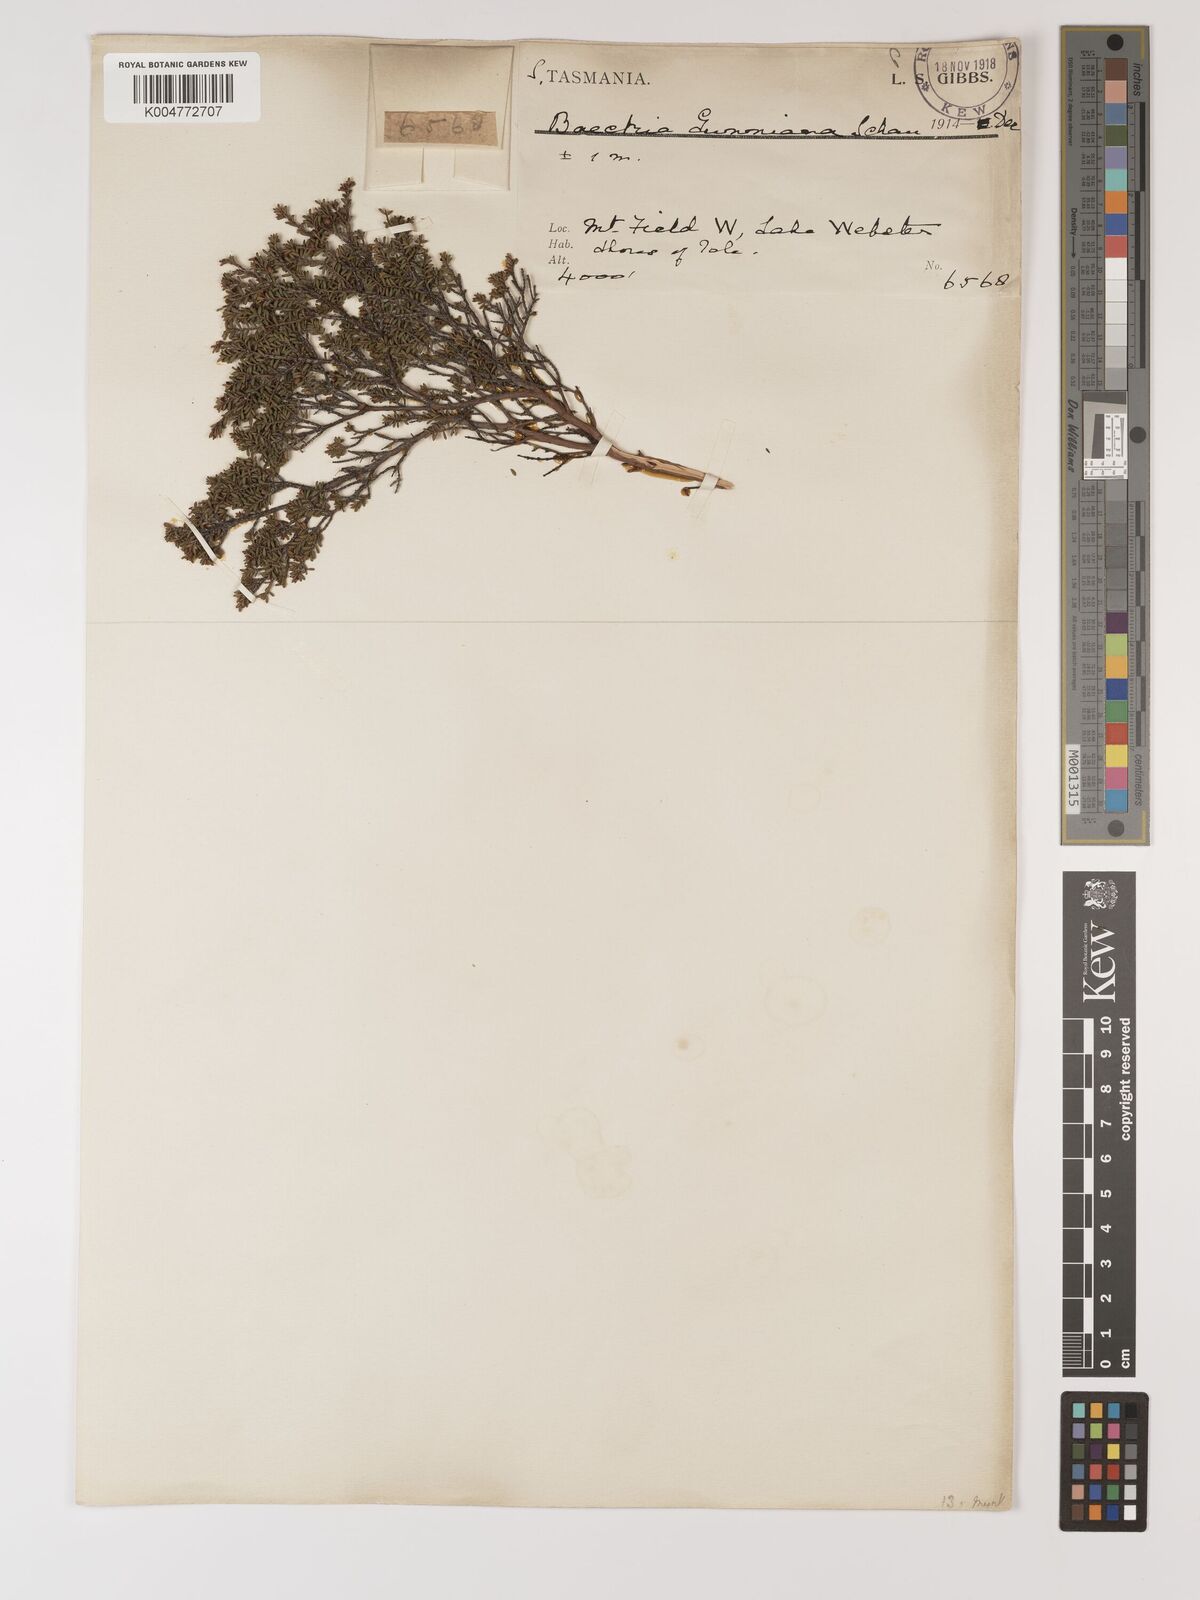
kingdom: Plantae
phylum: Tracheophyta
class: Magnoliopsida
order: Myrtales
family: Myrtaceae
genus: Baeckea
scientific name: Baeckea gunniana
